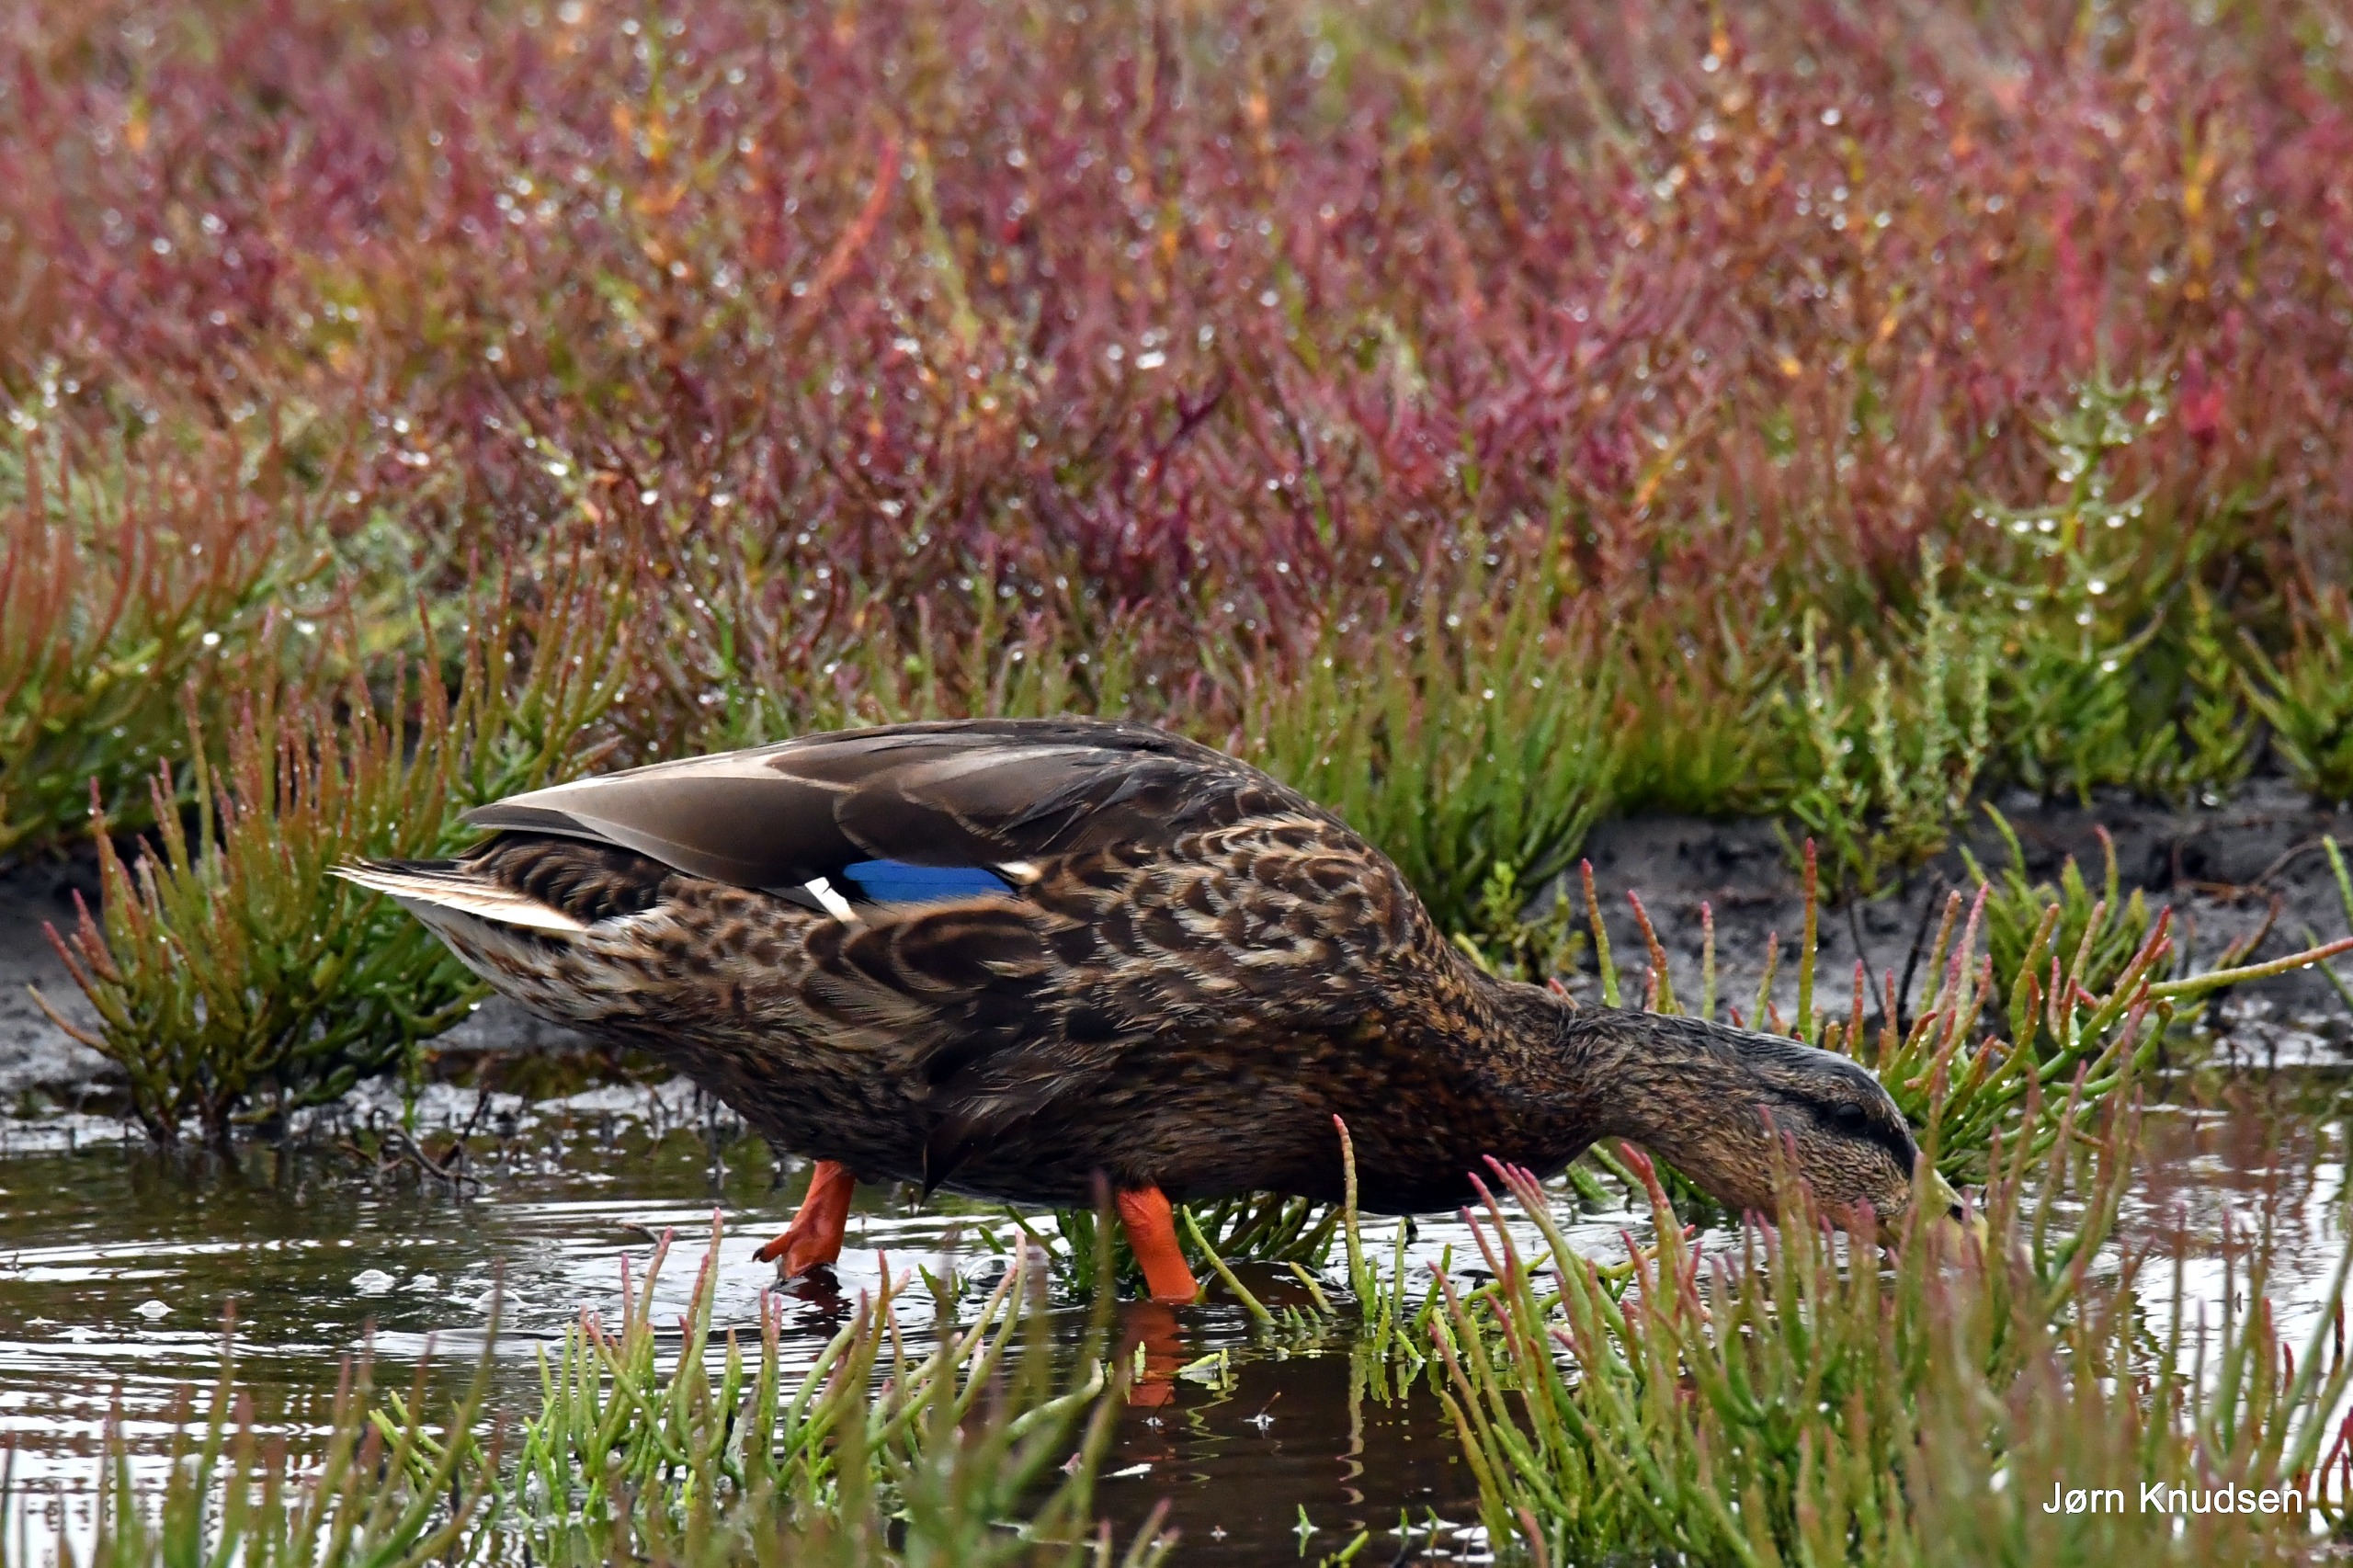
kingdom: Animalia
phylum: Chordata
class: Aves
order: Anseriformes
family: Anatidae
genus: Anas
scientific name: Anas platyrhynchos
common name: Gråand
